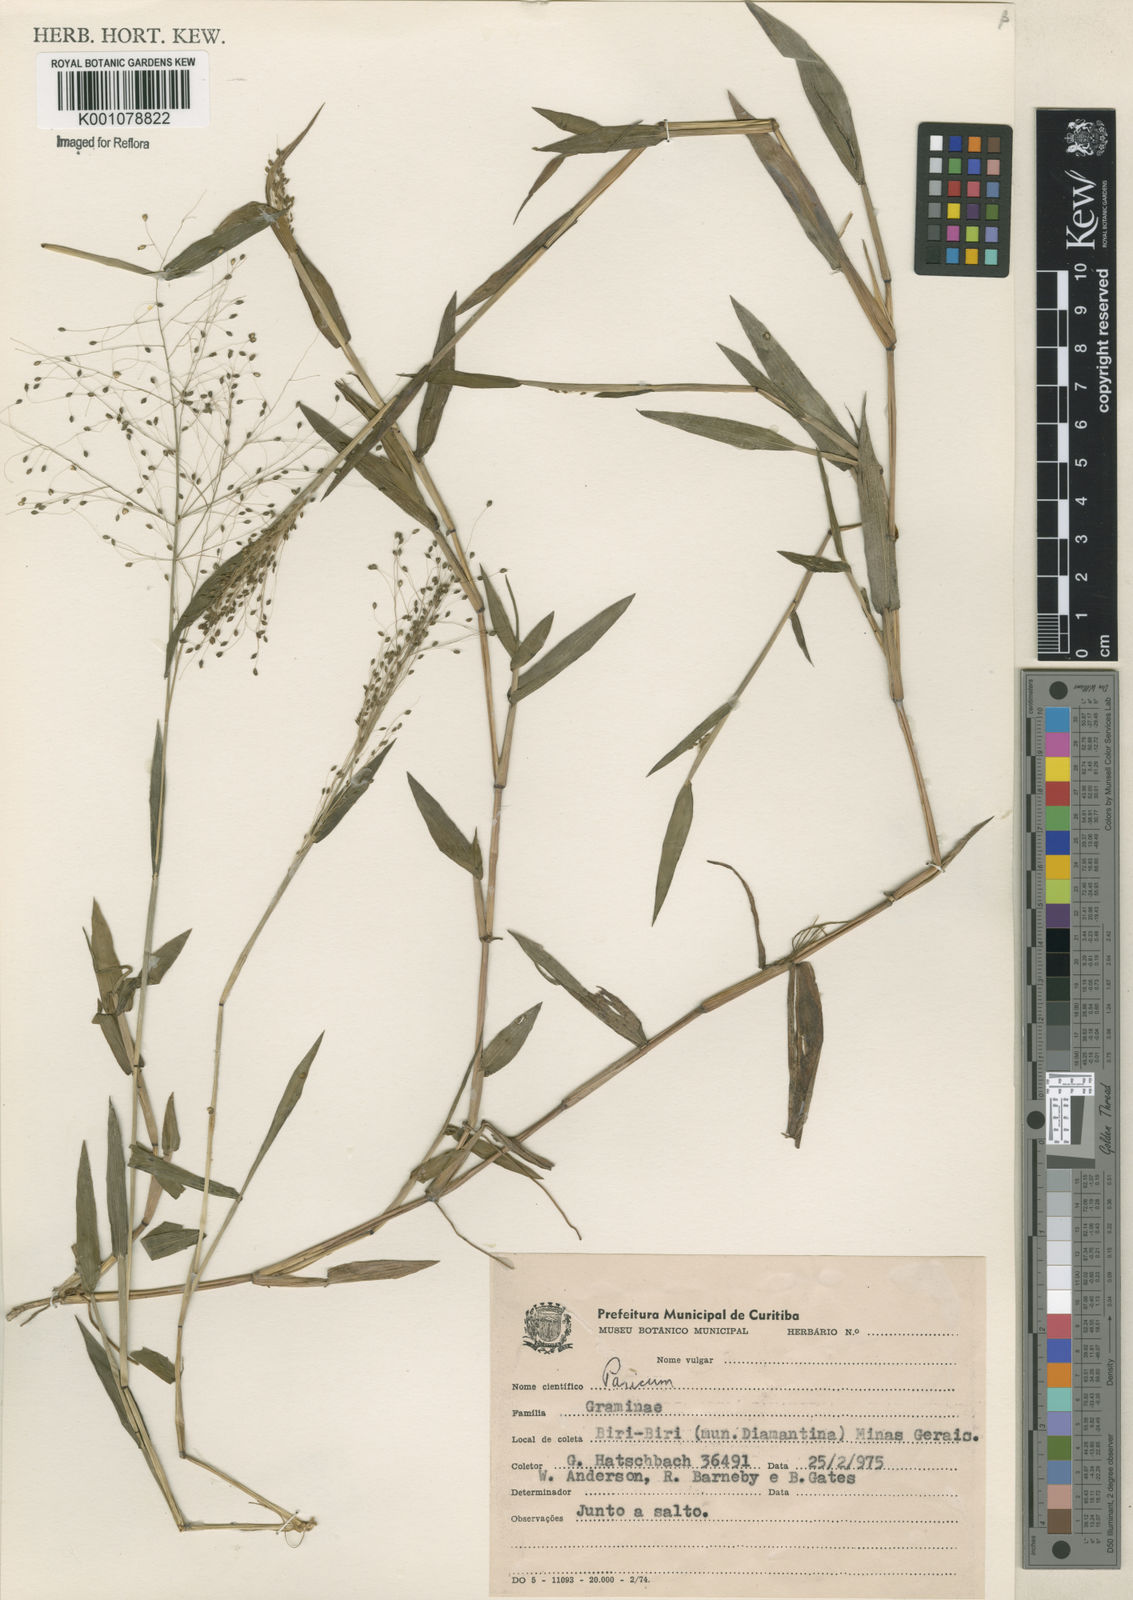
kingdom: Plantae
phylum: Tracheophyta
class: Liliopsida
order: Poales
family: Poaceae
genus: Trichanthecium
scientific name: Trichanthecium schwackeanum
